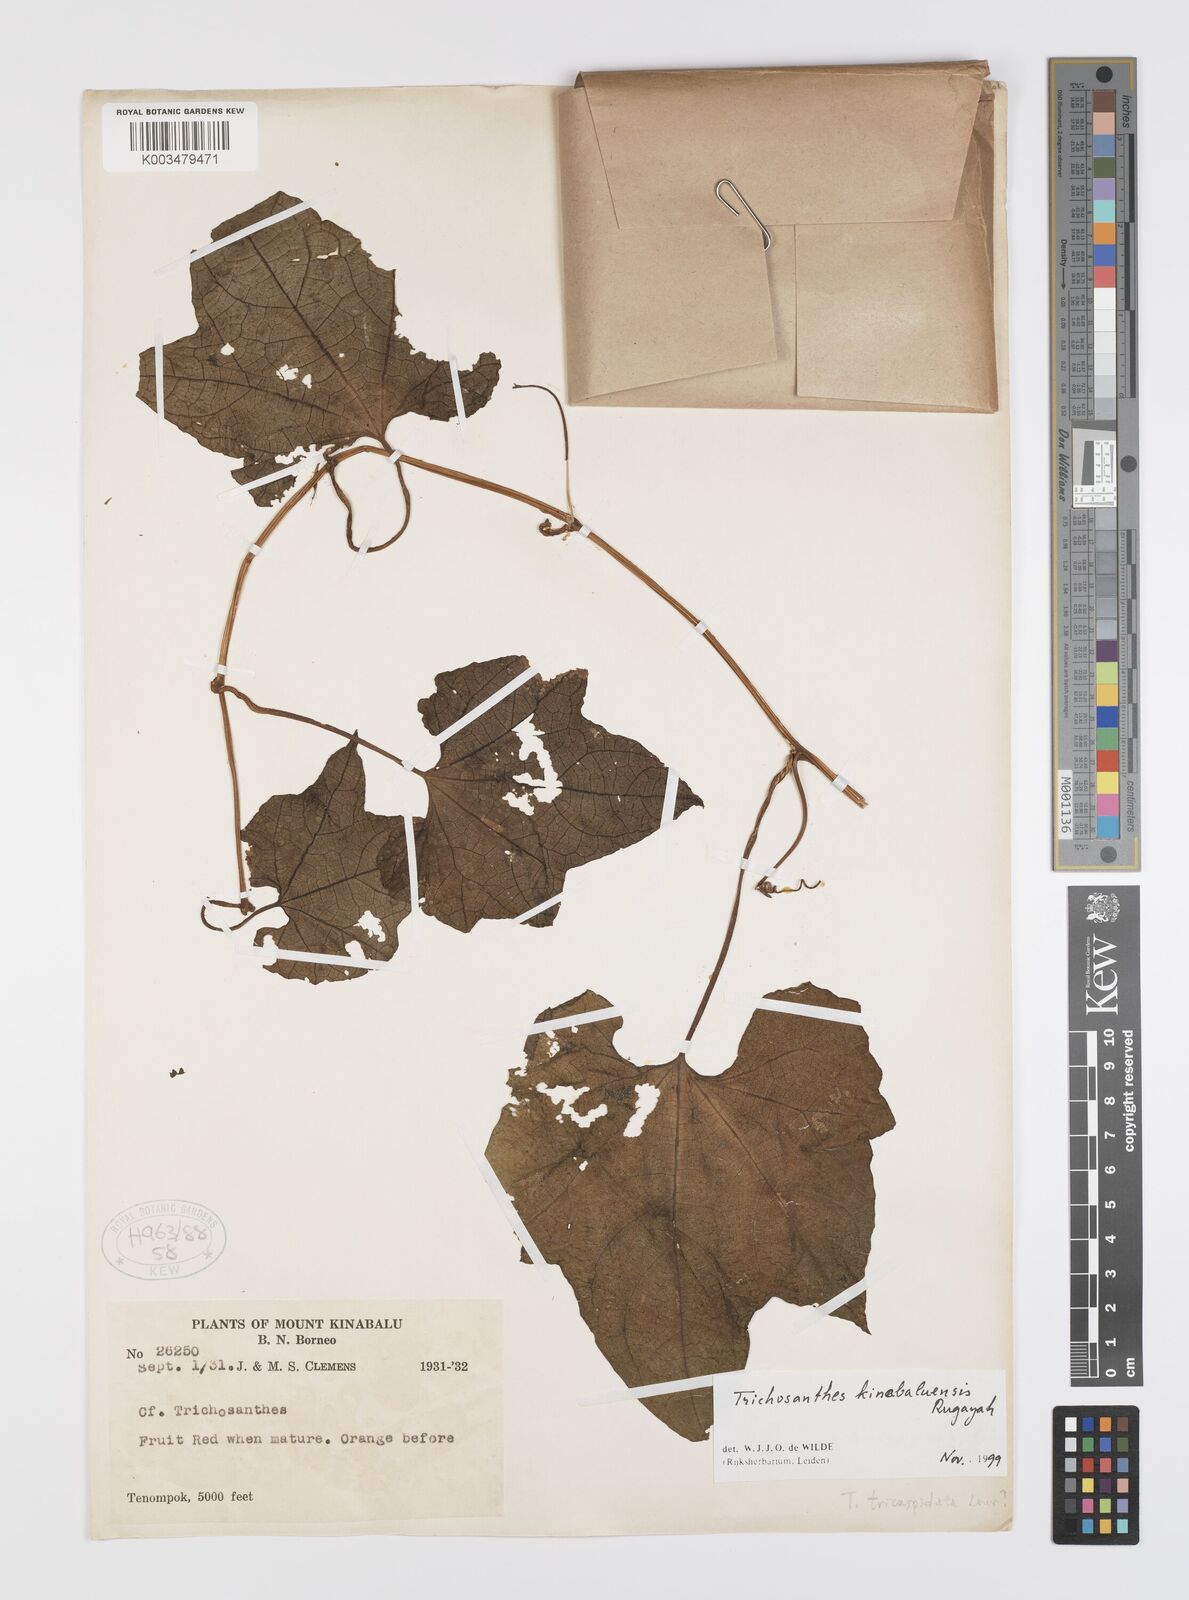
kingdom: Plantae
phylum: Tracheophyta
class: Magnoliopsida
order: Cucurbitales
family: Cucurbitaceae
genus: Trichosanthes
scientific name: Trichosanthes kinabaluensis
